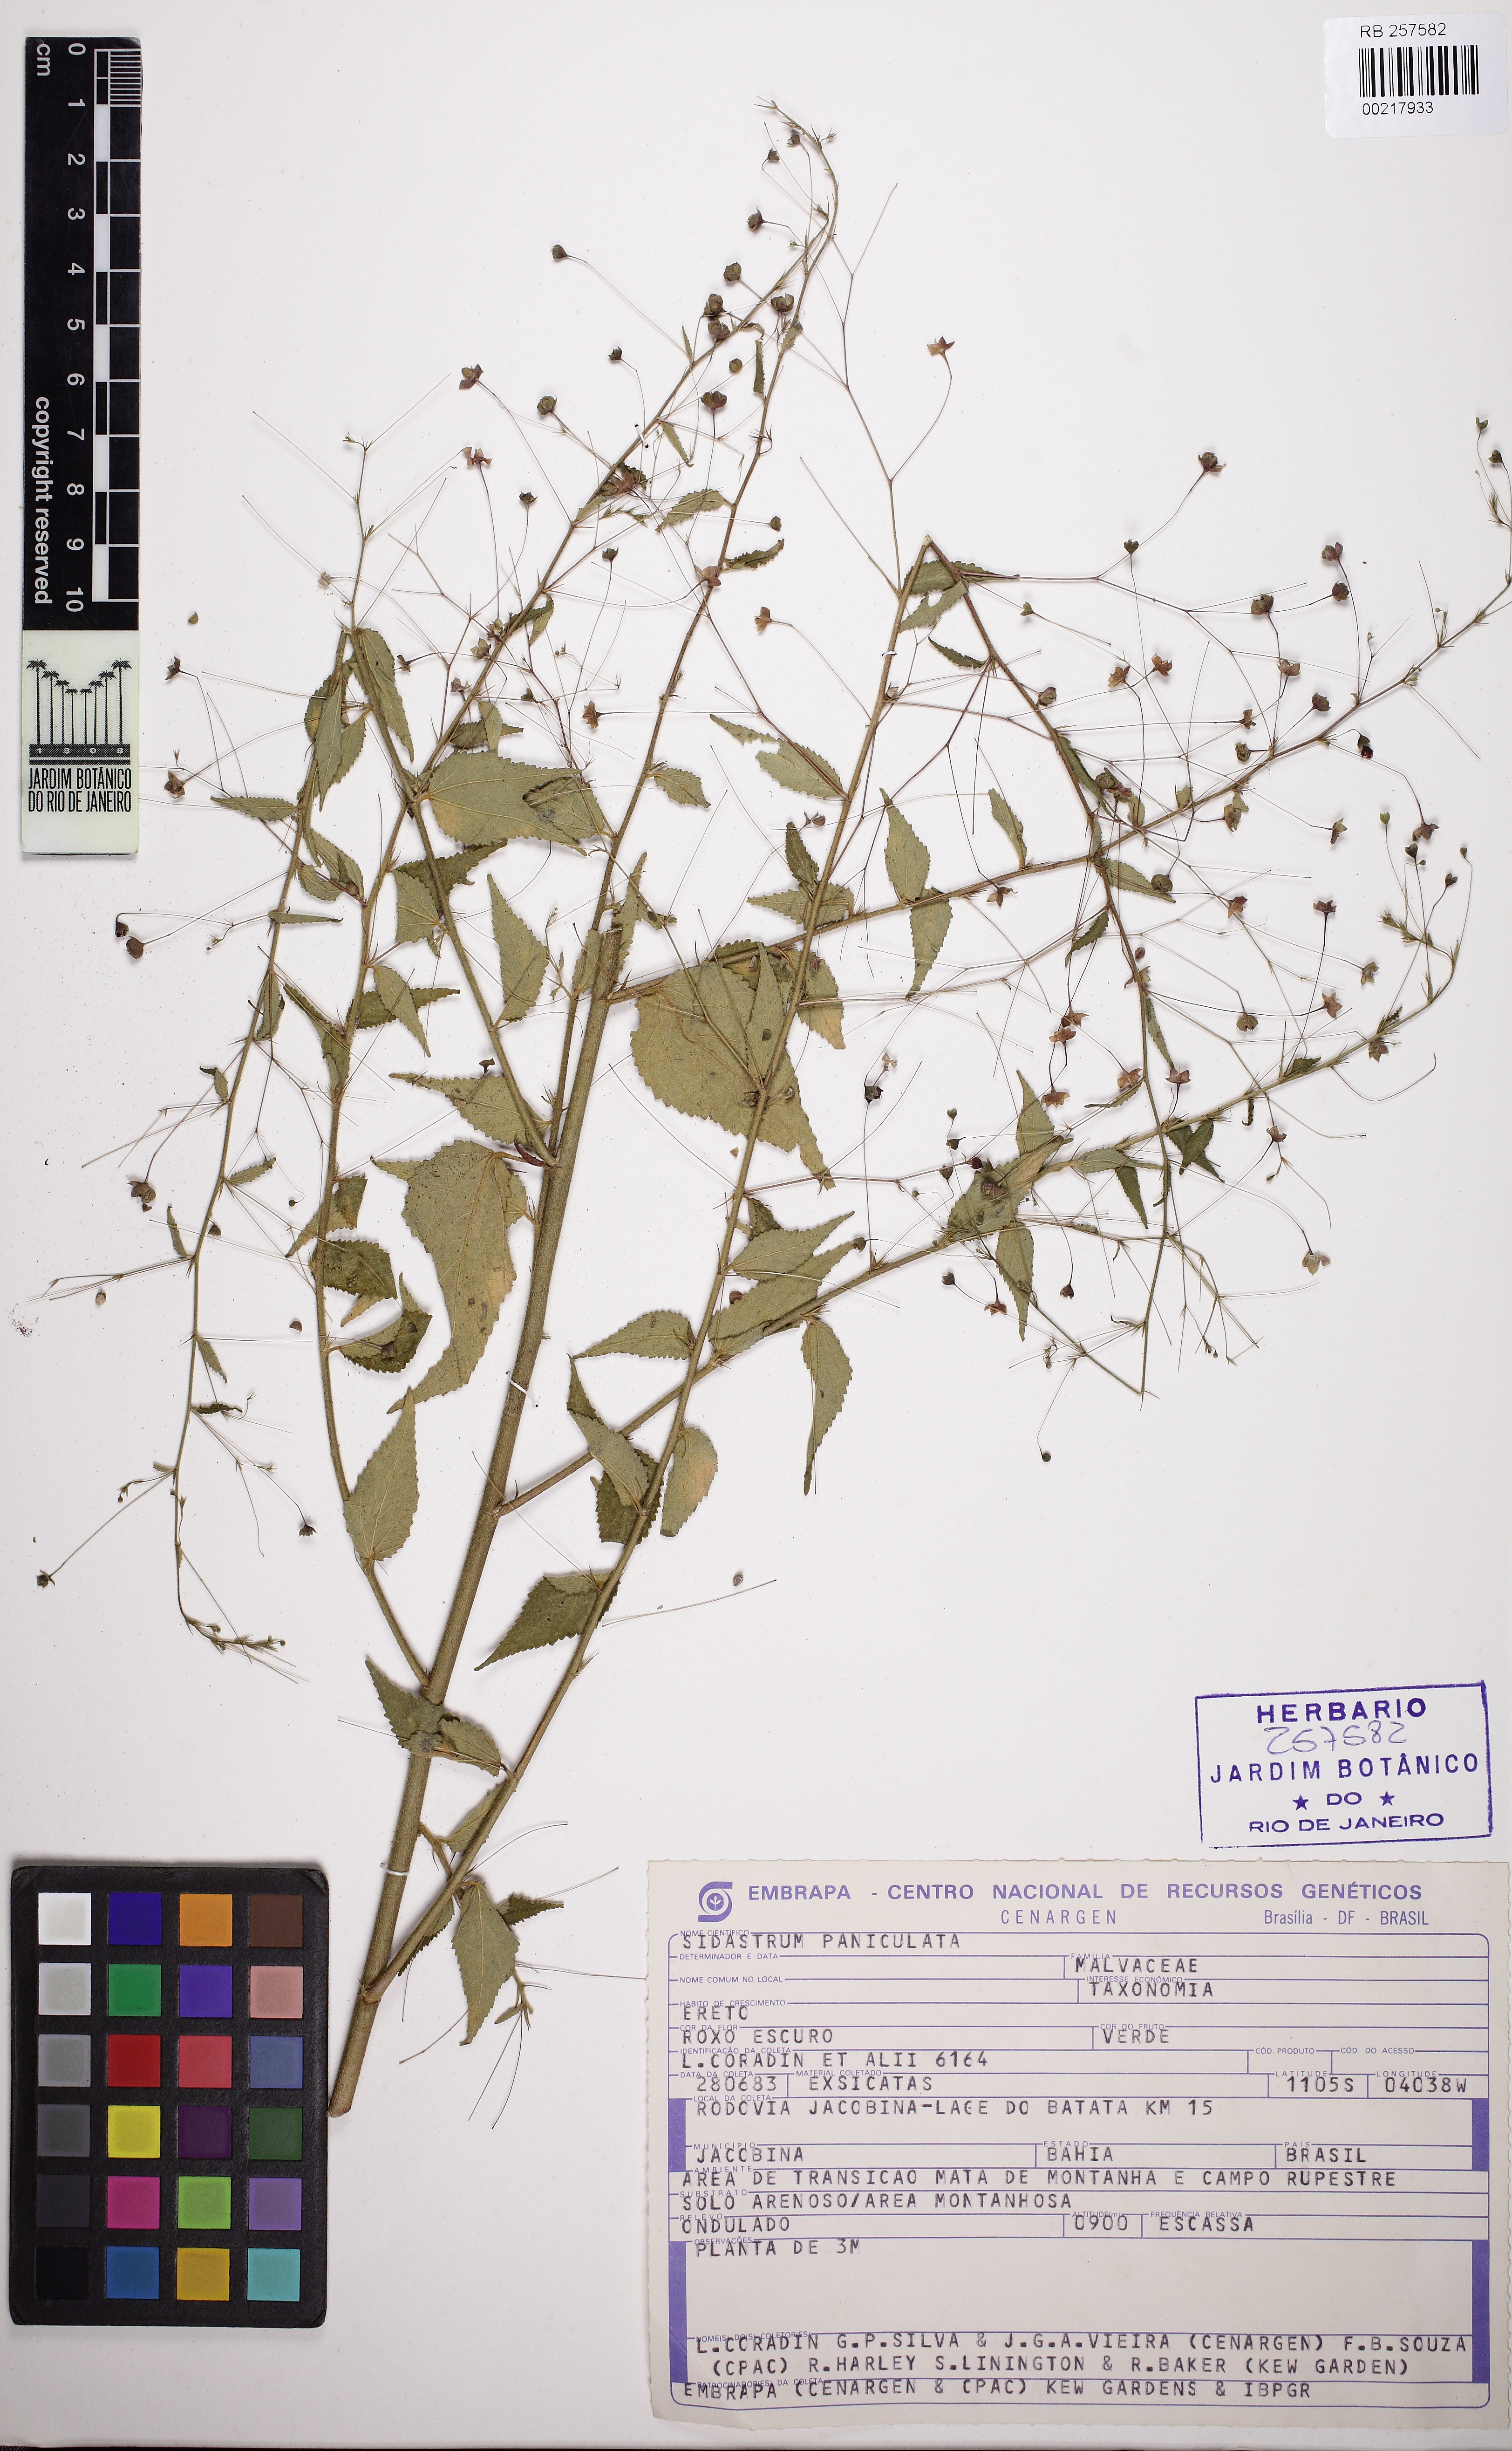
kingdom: Plantae
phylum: Tracheophyta
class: Magnoliopsida
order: Malvales
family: Malvaceae
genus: Sidastrum
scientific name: Sidastrum paniculatum
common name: Panicled sandmallow
